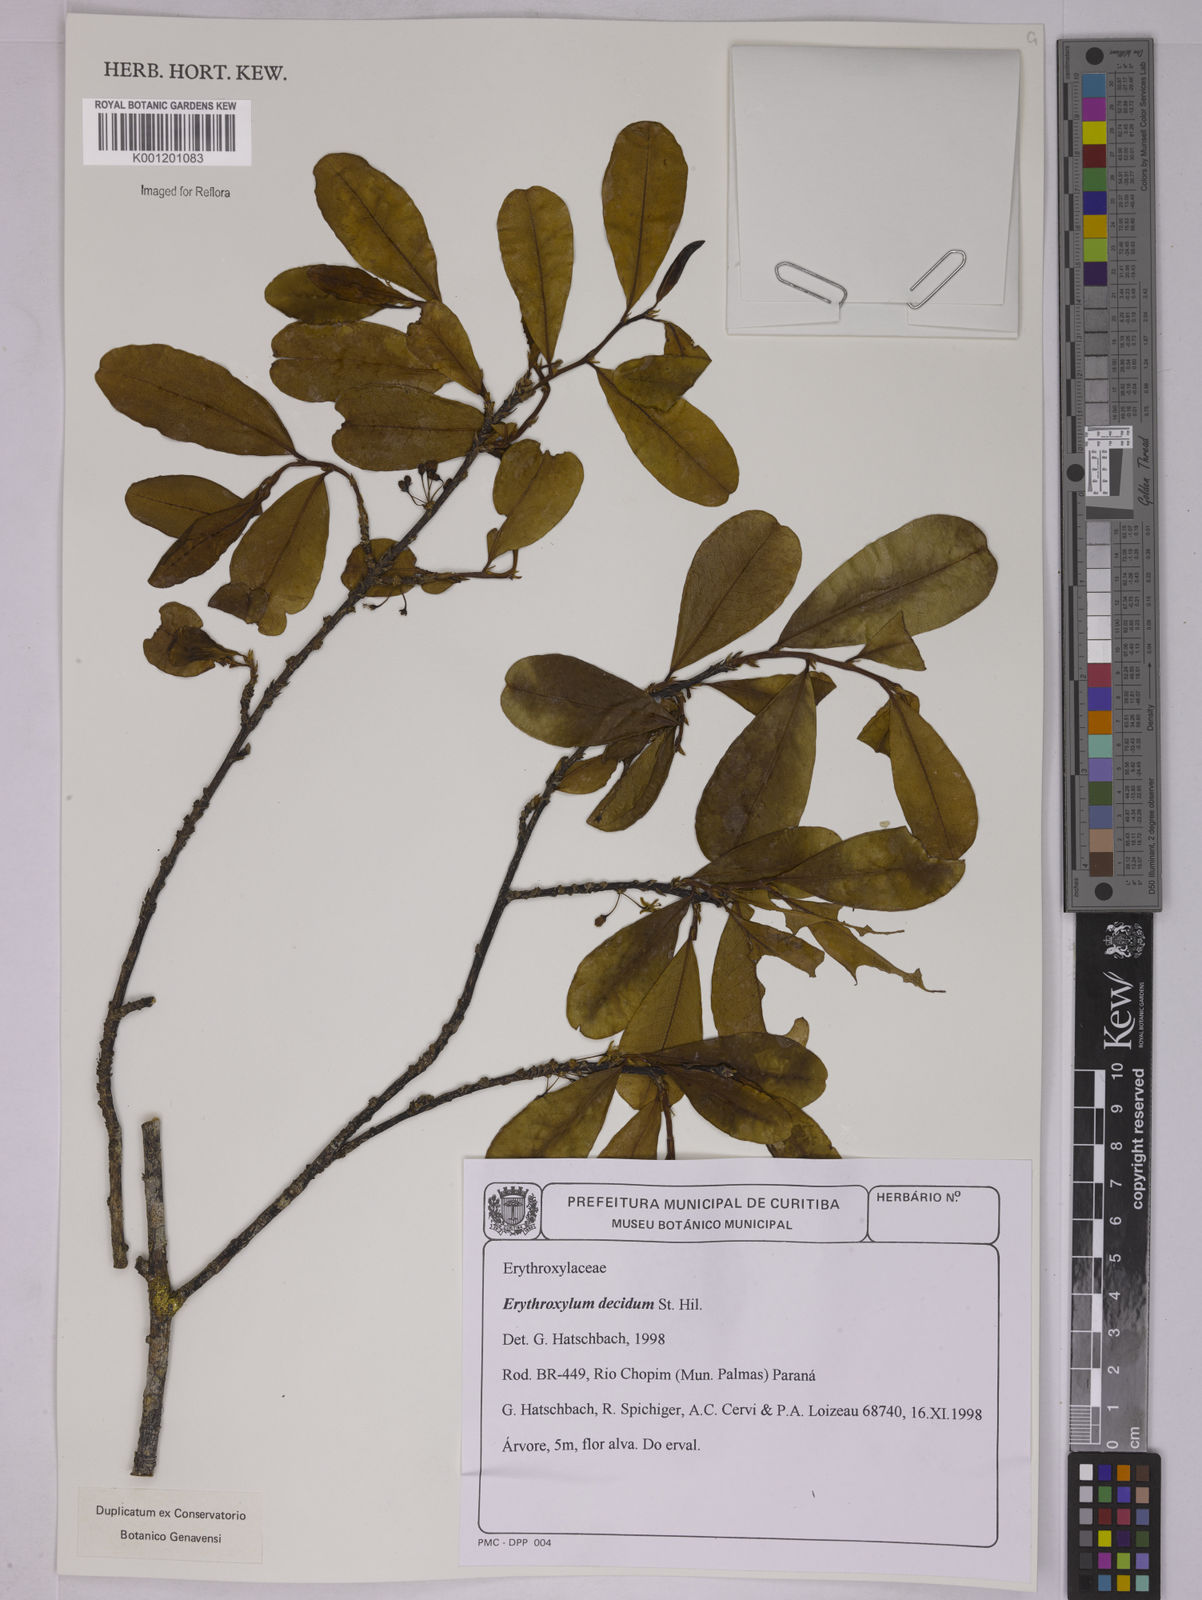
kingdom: Plantae
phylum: Tracheophyta
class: Magnoliopsida
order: Malpighiales
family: Erythroxylaceae
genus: Erythroxylum
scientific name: Erythroxylum deciduum
